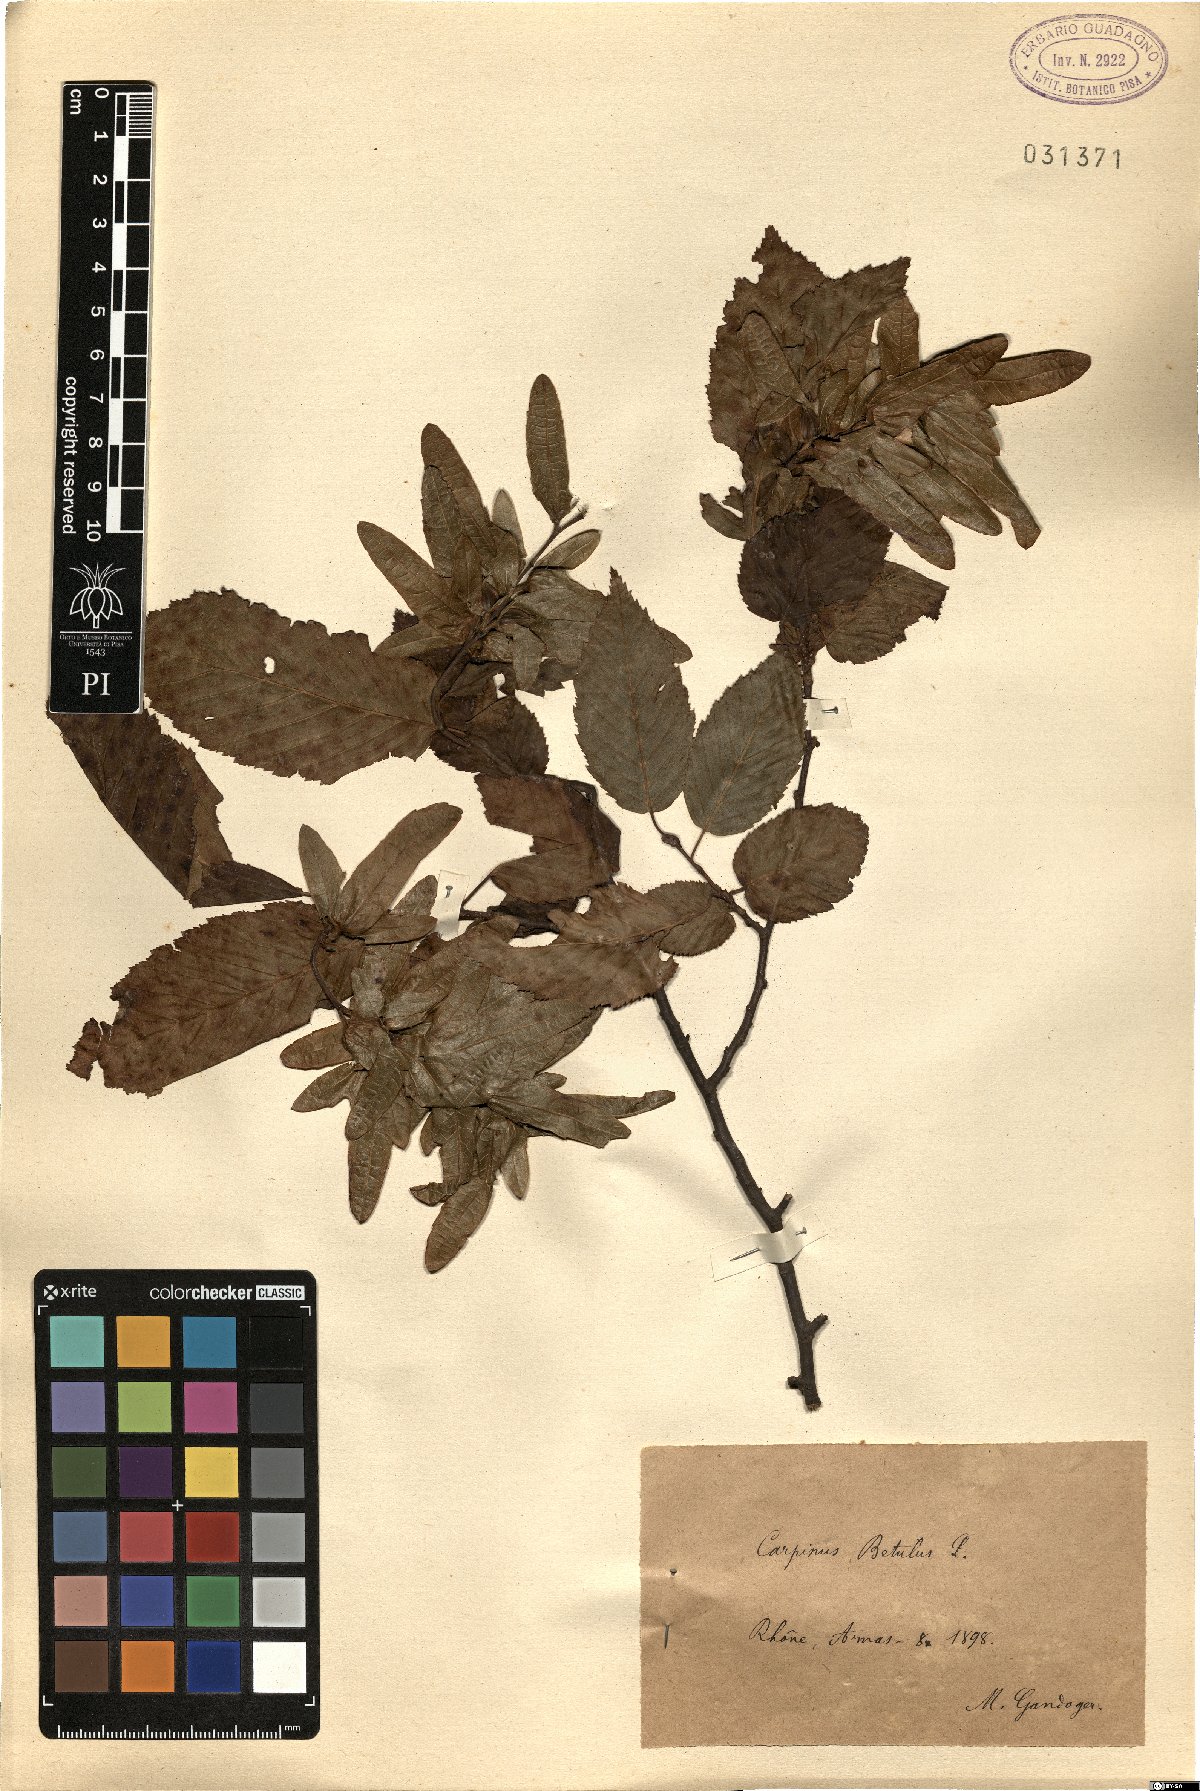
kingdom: Plantae
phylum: Tracheophyta
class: Magnoliopsida
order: Fagales
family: Betulaceae
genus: Carpinus
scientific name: Carpinus betulus
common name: Hornbeam
